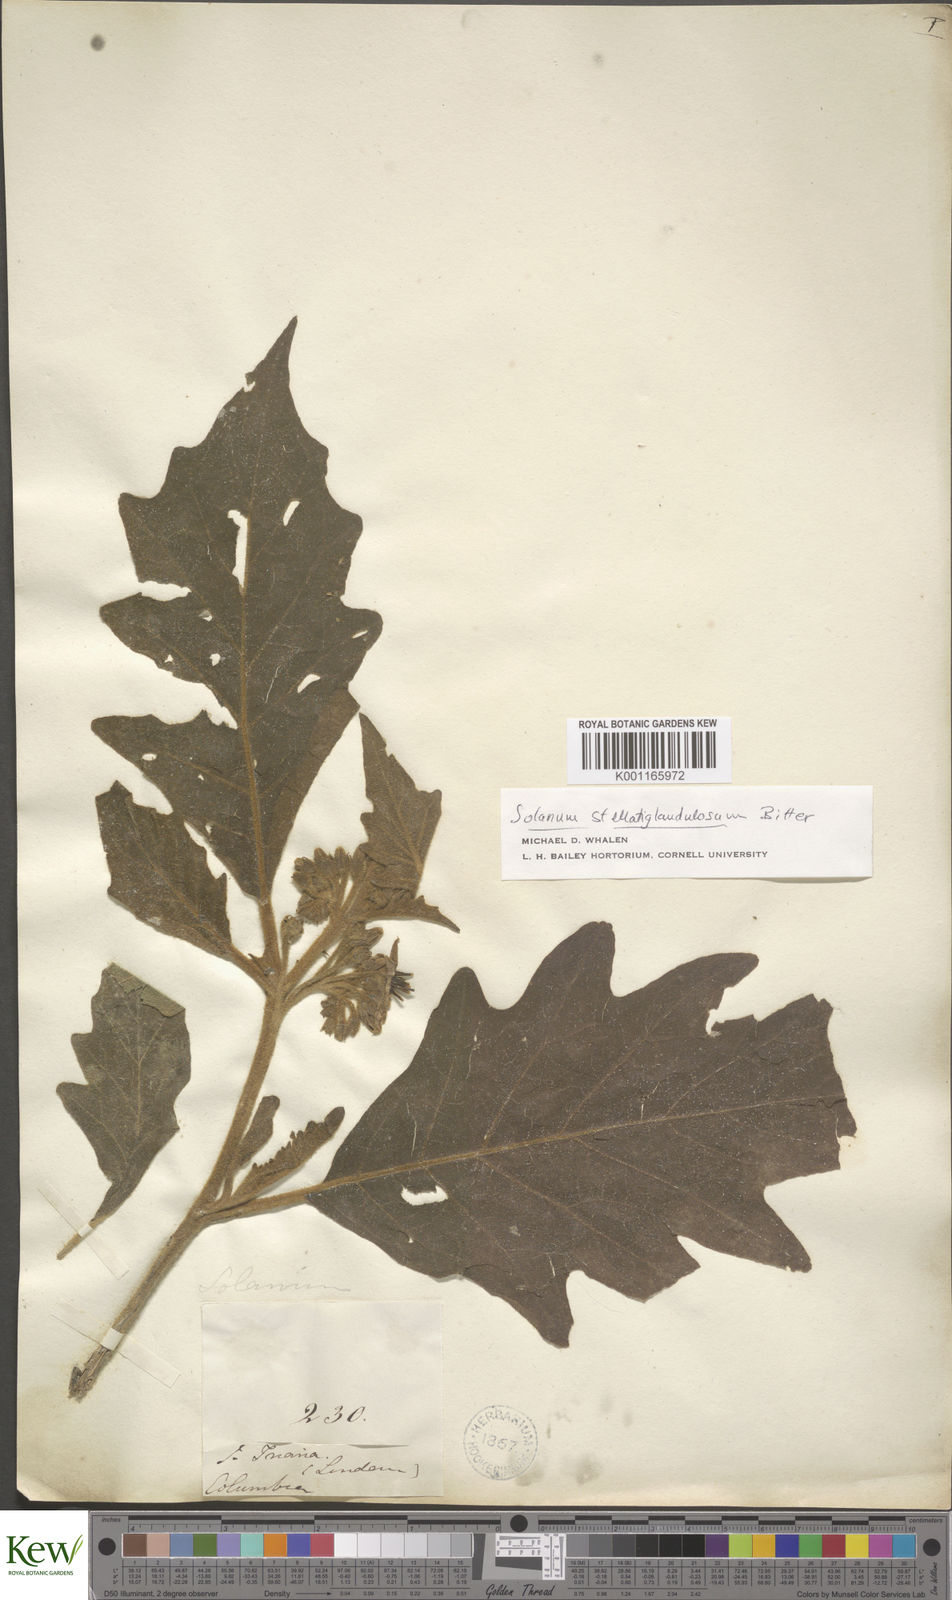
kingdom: Plantae
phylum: Tracheophyta
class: Magnoliopsida
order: Solanales
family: Solanaceae
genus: Solanum
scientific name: Solanum stellatiglandulosum
